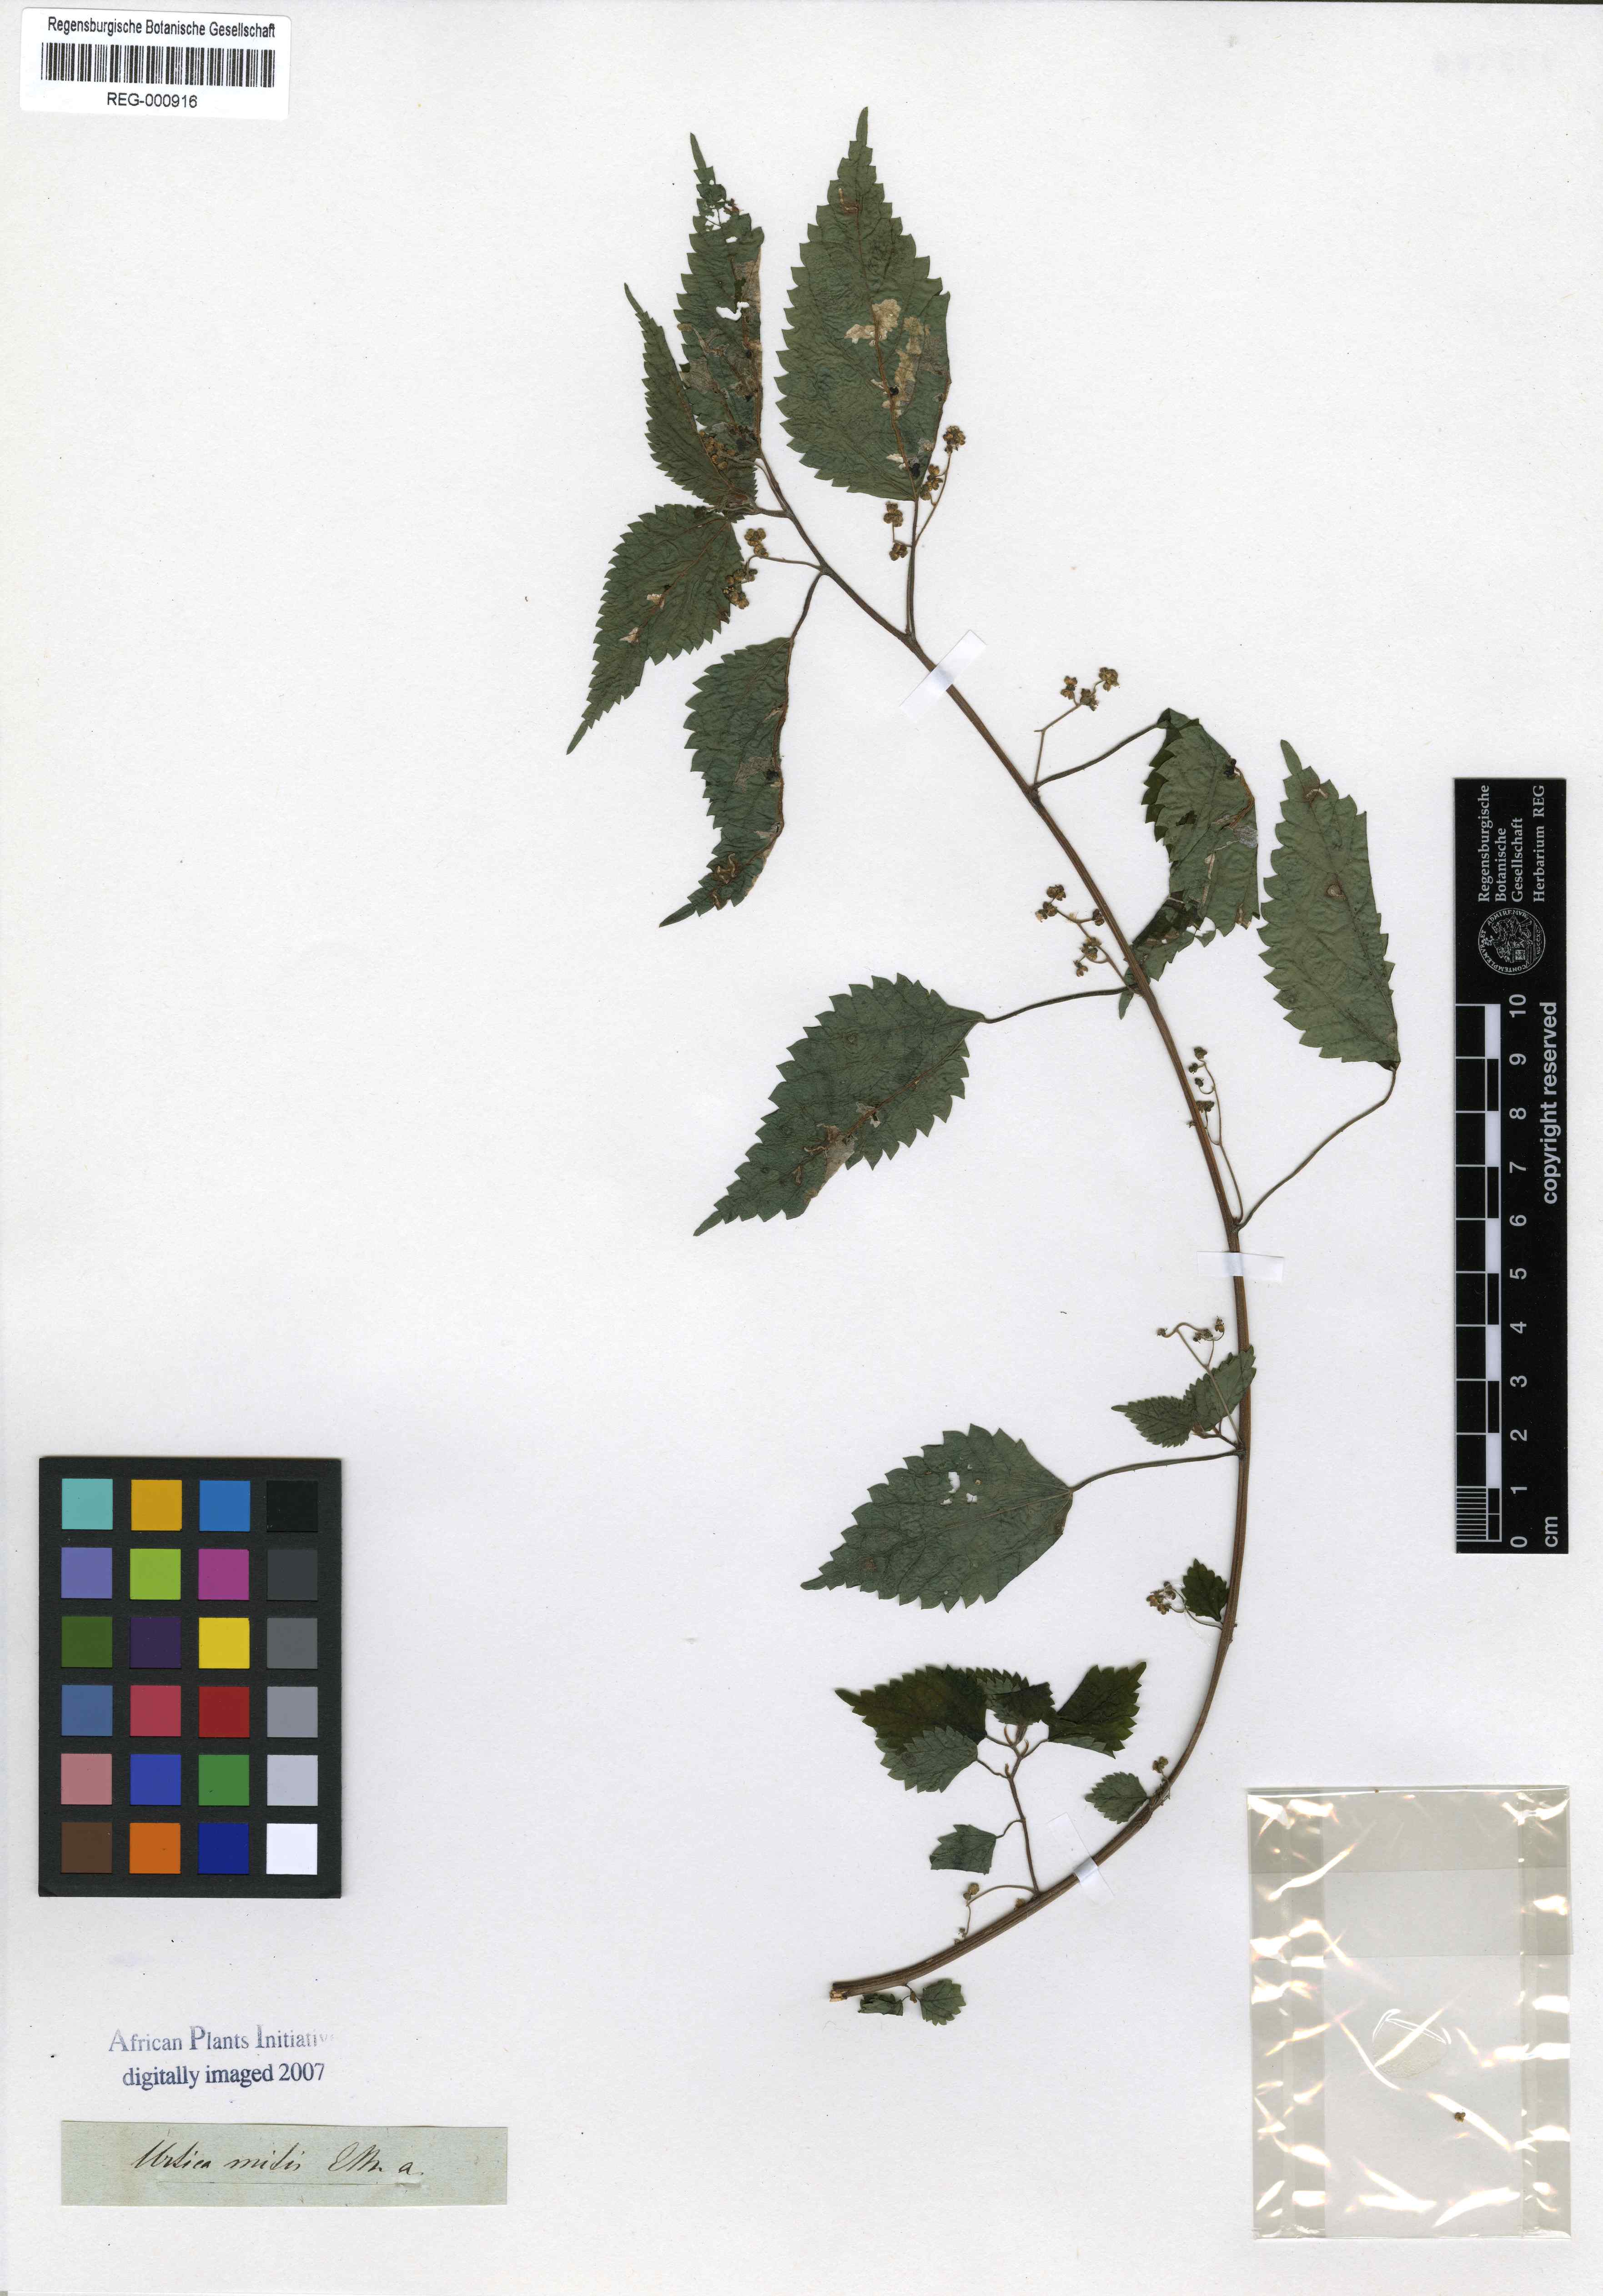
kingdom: Plantae
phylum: Tracheophyta
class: Magnoliopsida
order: Rosales
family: Urticaceae
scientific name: Urticaceae
